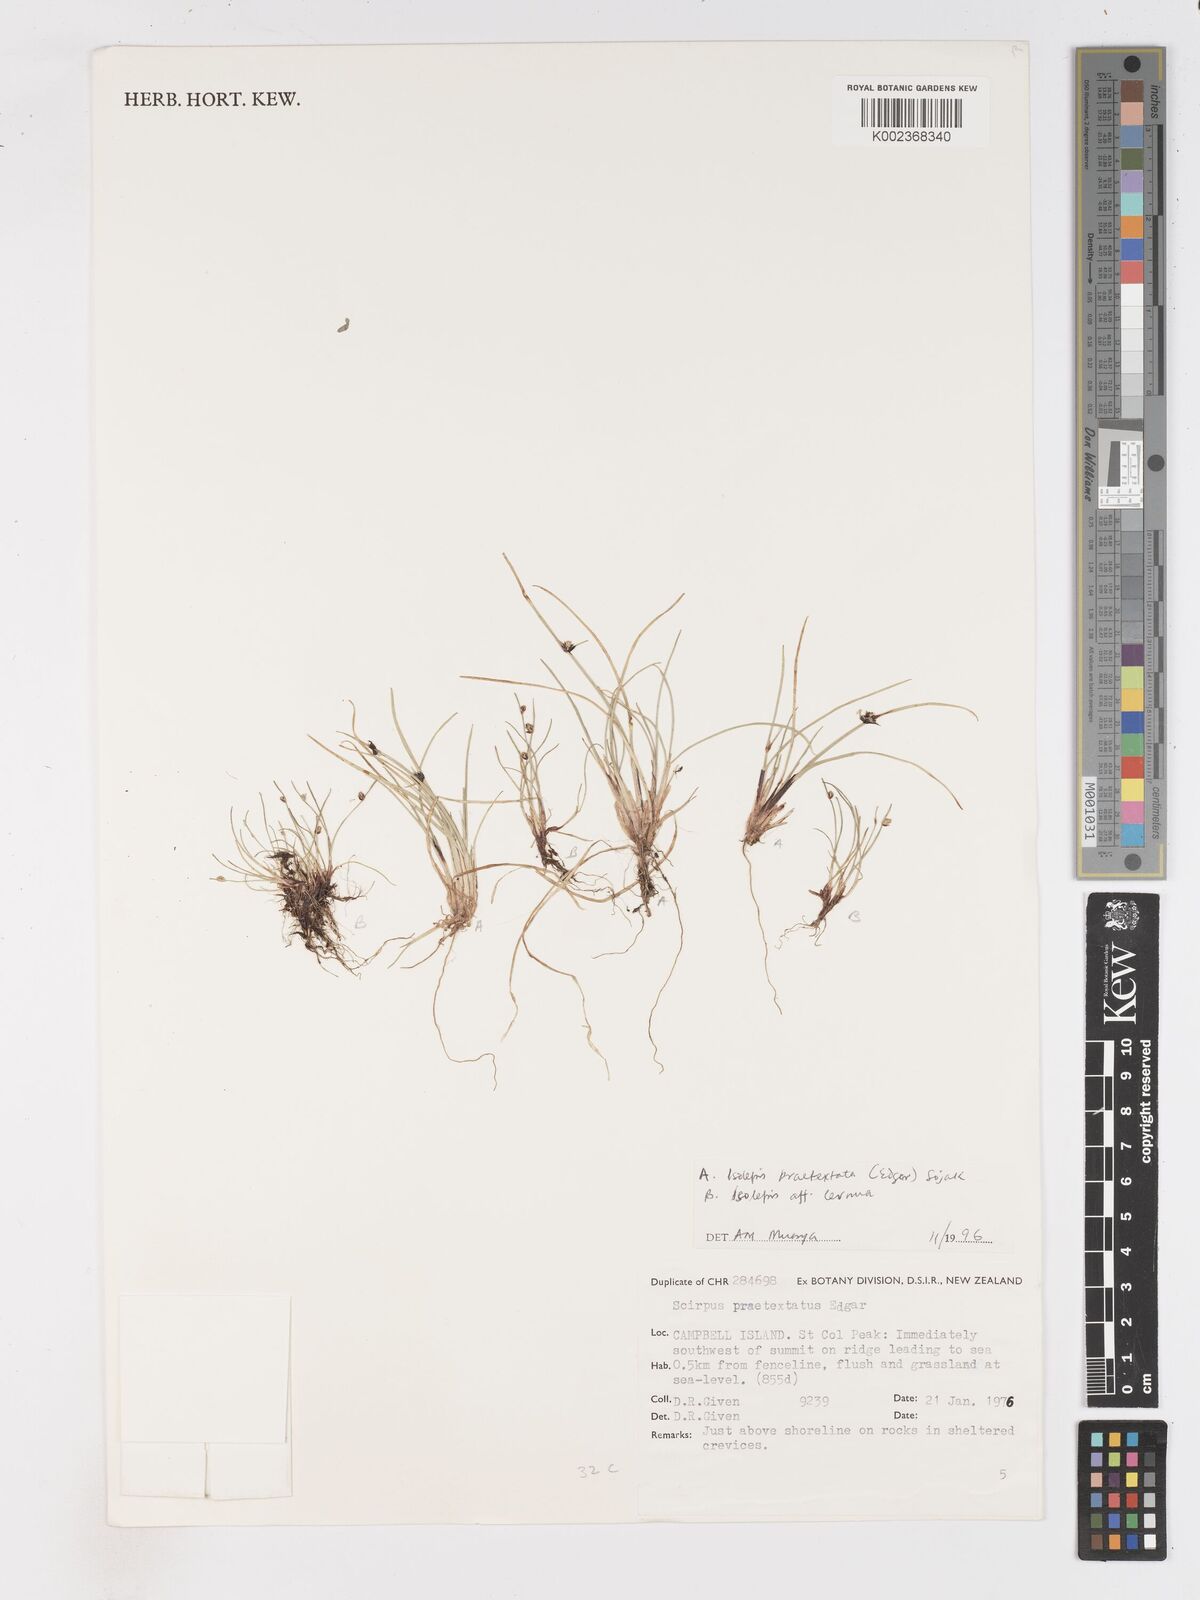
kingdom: Plantae
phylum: Tracheophyta
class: Liliopsida
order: Poales
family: Cyperaceae
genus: Isolepis
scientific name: Isolepis praetextata
